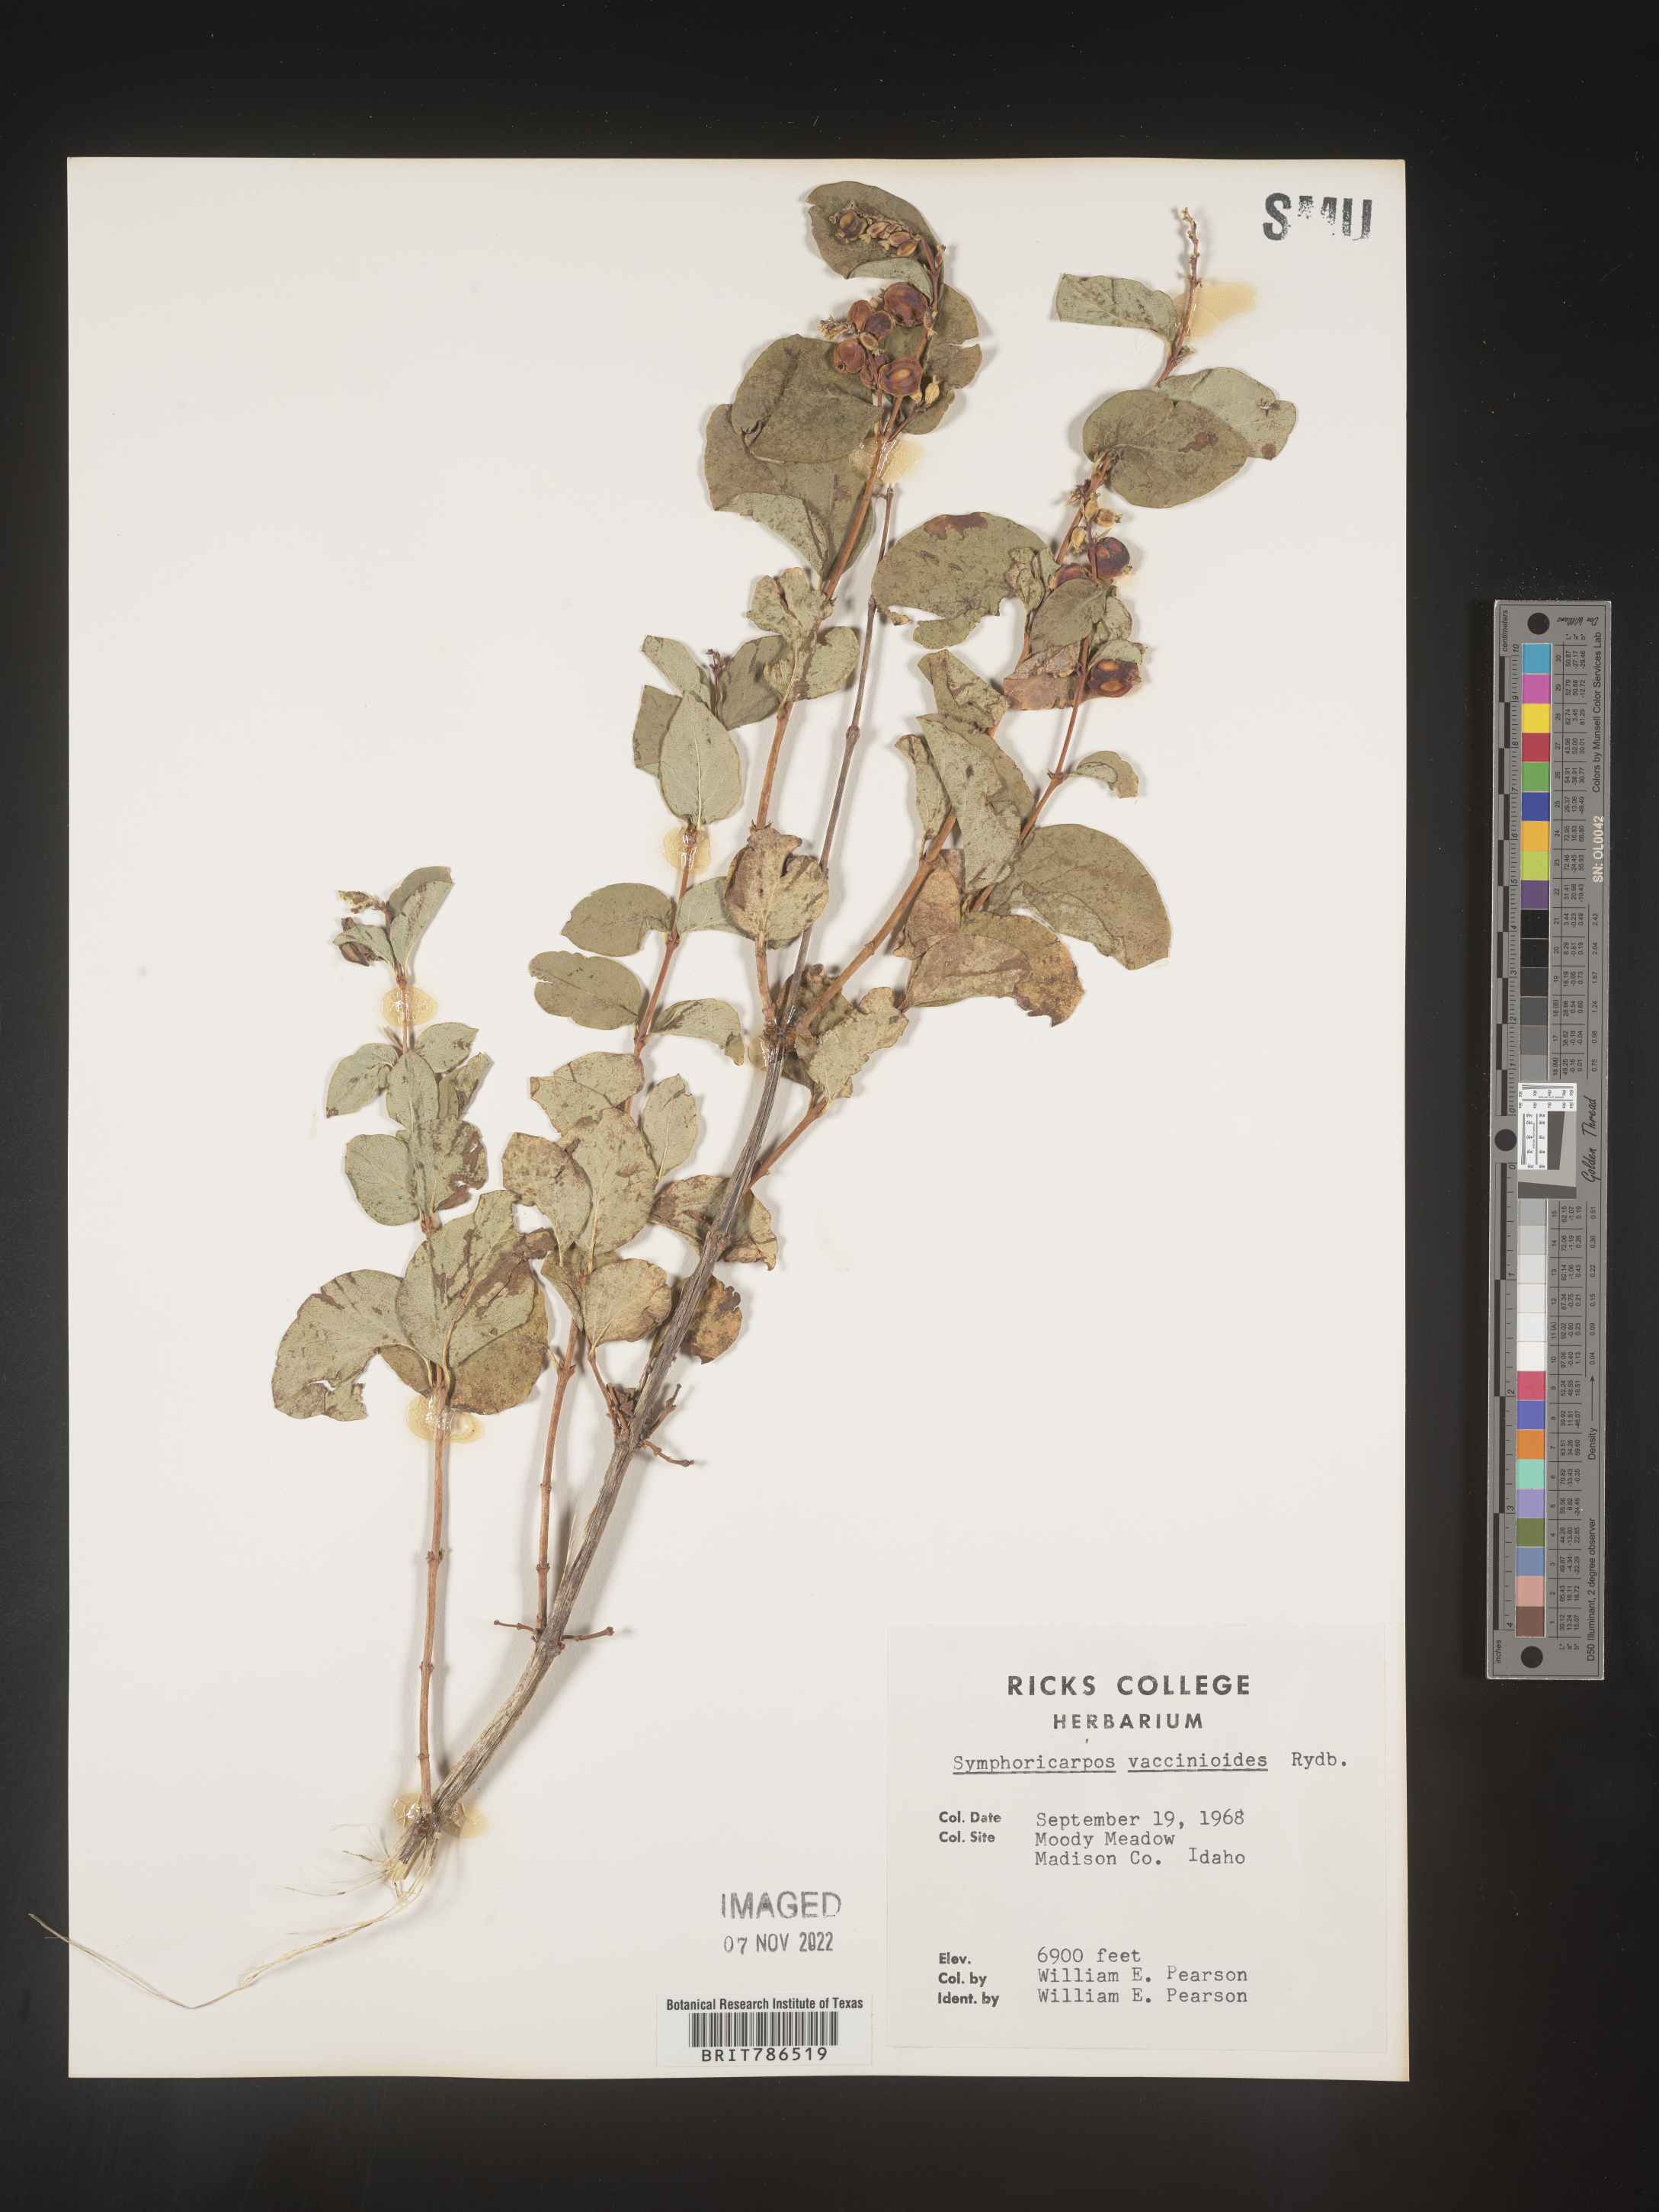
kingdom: Plantae
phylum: Tracheophyta
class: Magnoliopsida
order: Dipsacales
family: Caprifoliaceae
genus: Symphoricarpos
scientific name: Symphoricarpos
